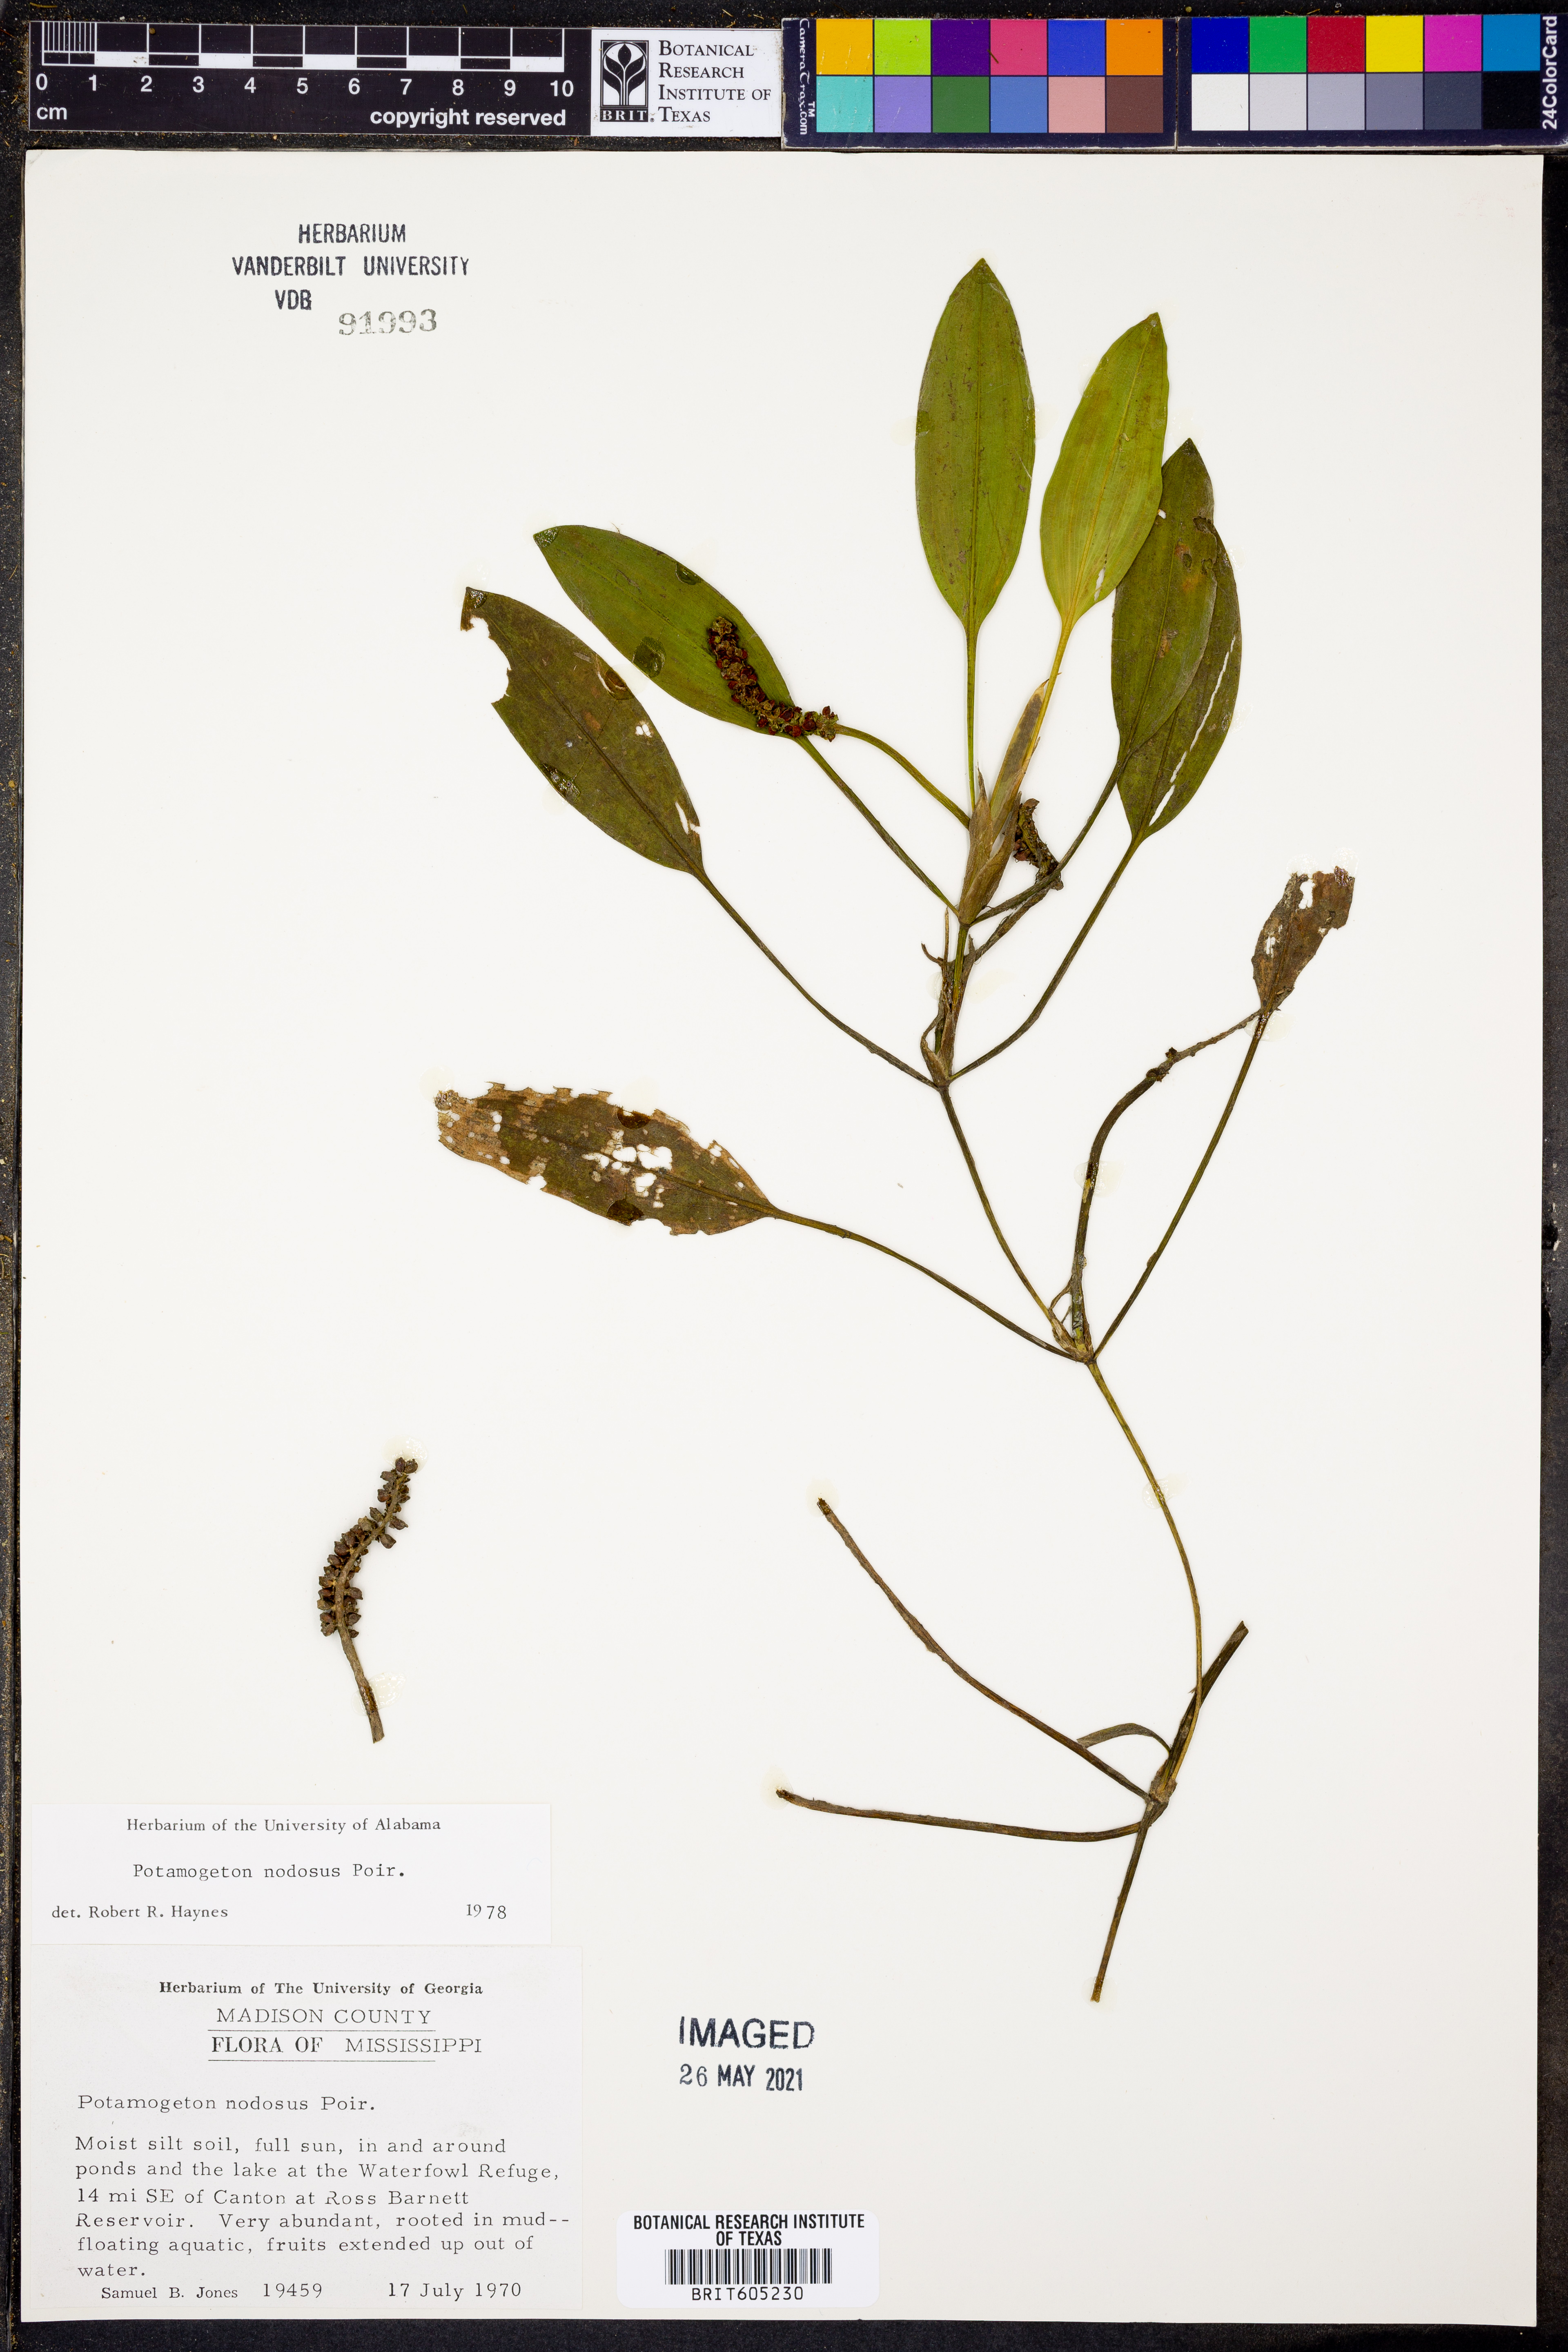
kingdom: Plantae
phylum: Tracheophyta
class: Liliopsida
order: Alismatales
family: Potamogetonaceae
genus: Potamogeton
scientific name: Potamogeton nodosus
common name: Loddon pondweed
